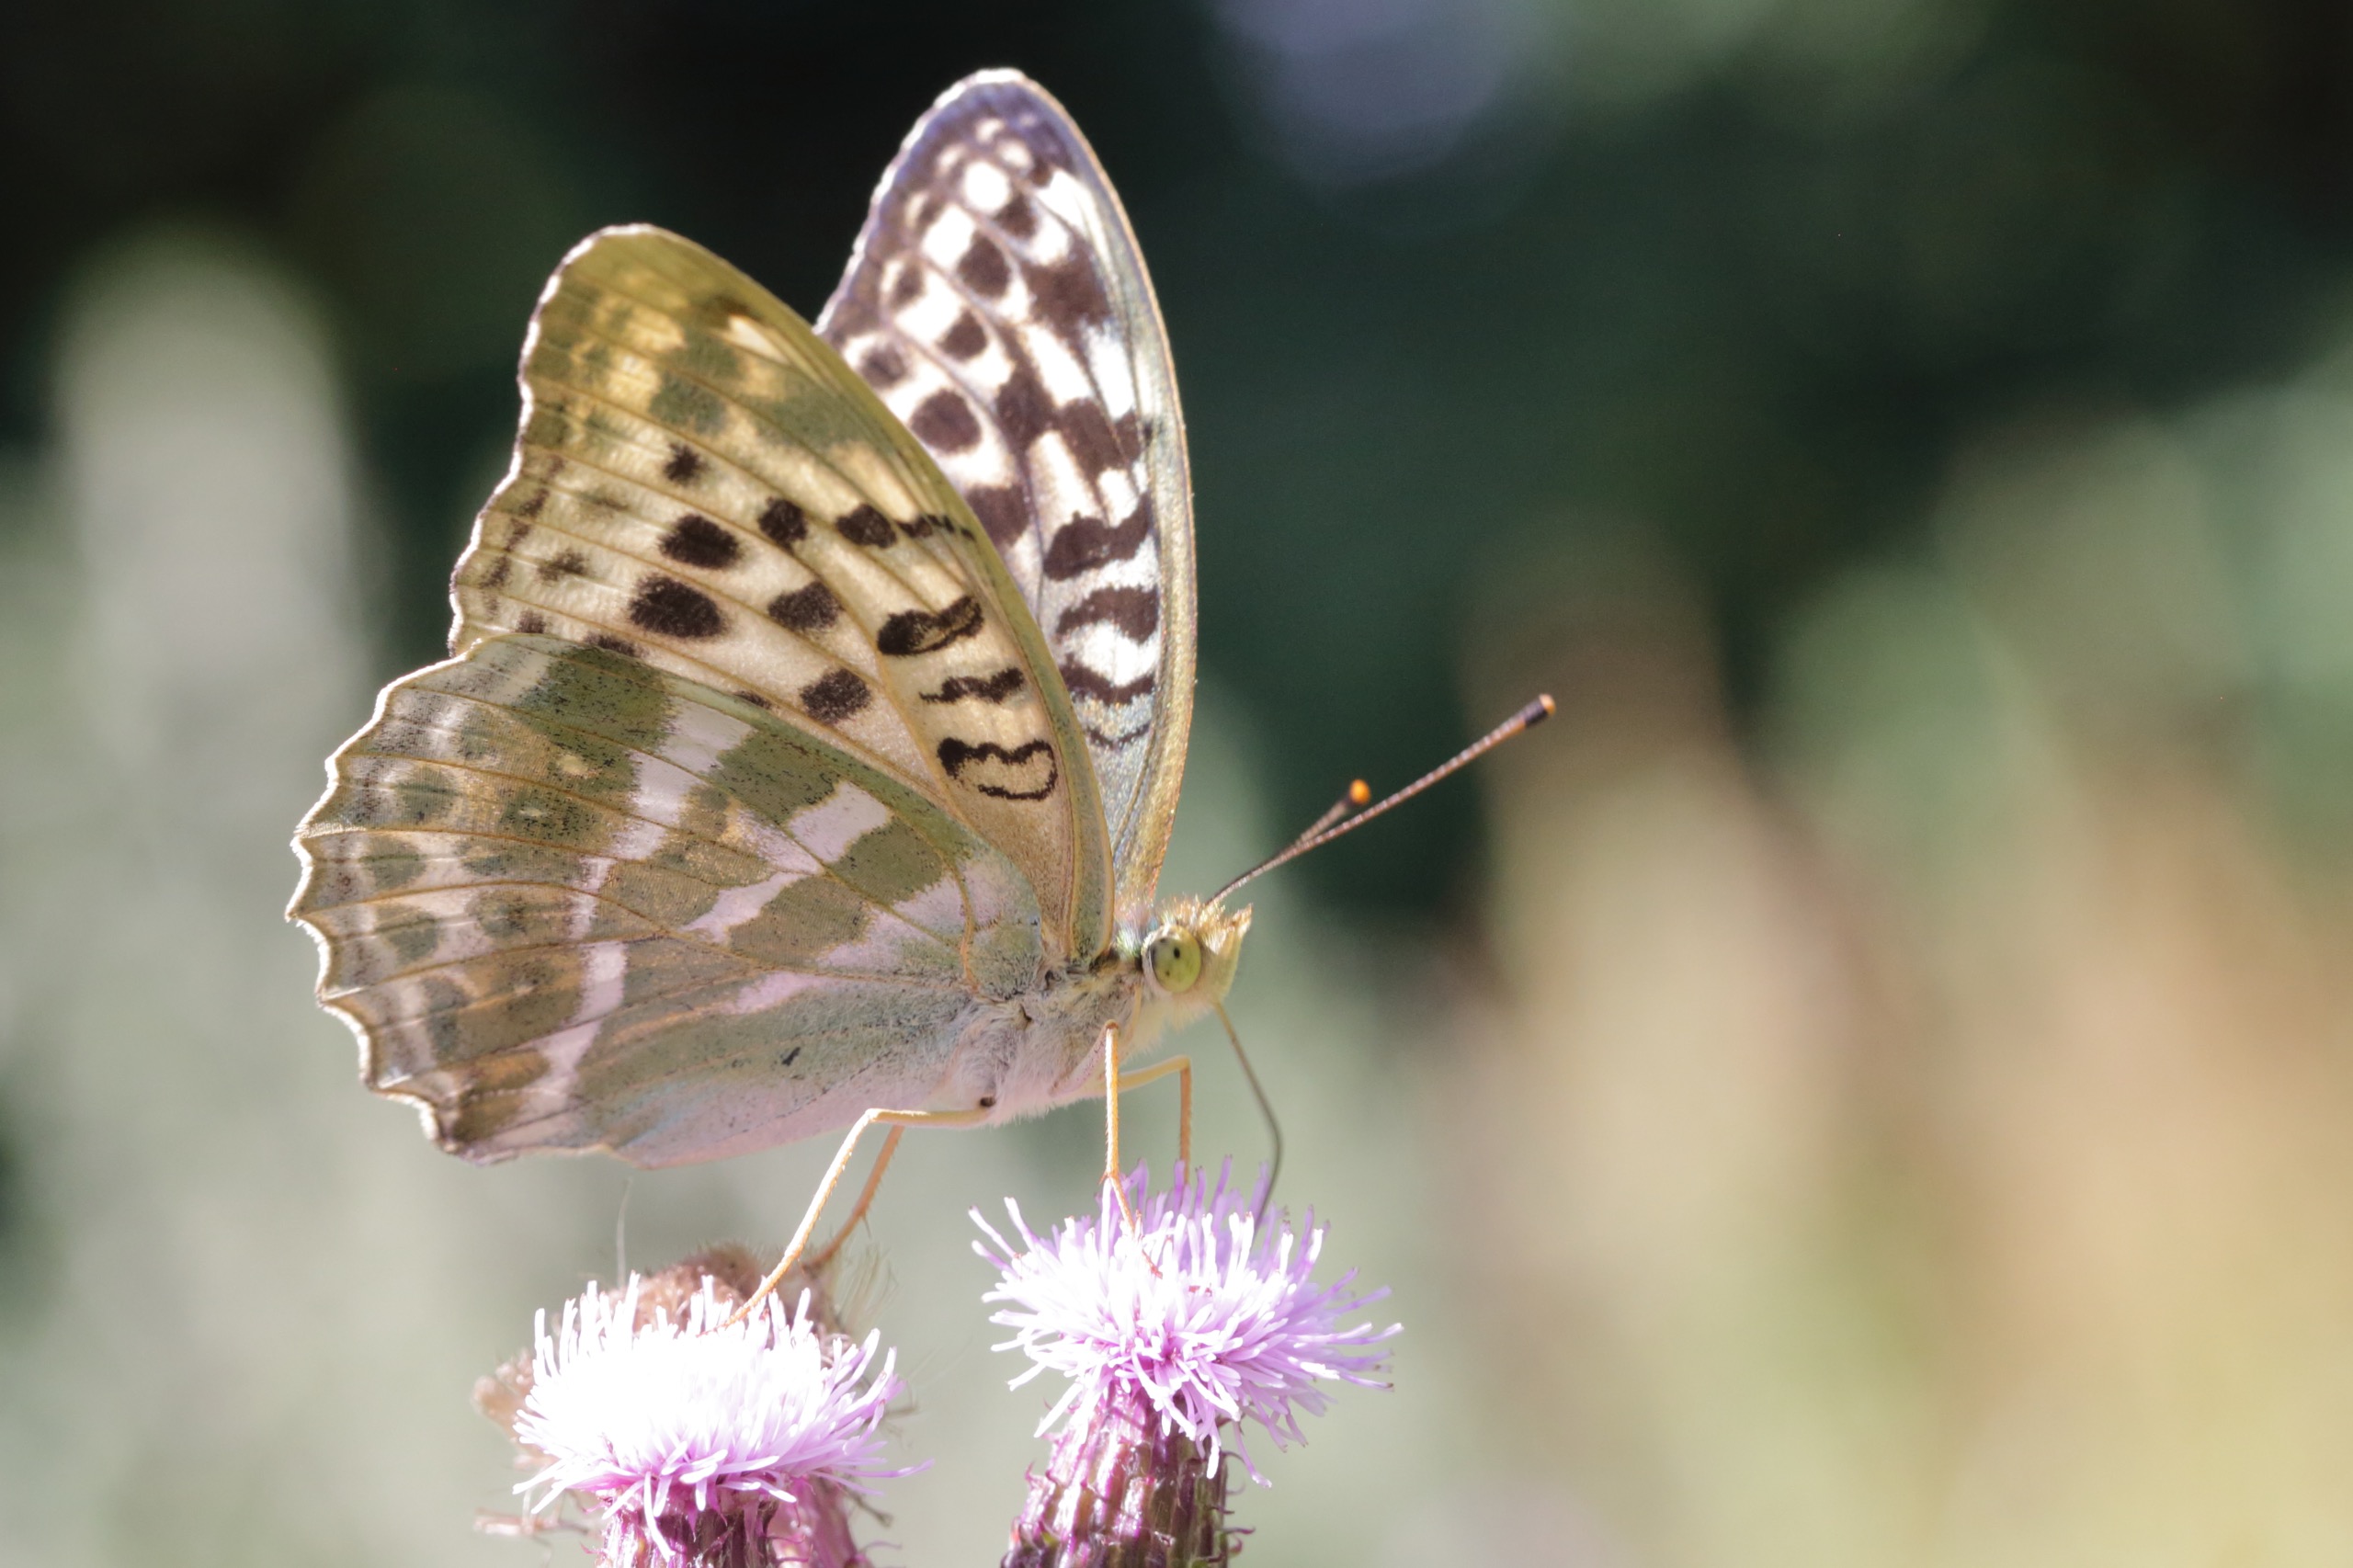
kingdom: Animalia
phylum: Arthropoda
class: Insecta
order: Lepidoptera
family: Nymphalidae
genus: Argynnis
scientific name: Argynnis paphia
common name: Kejserkåbe
